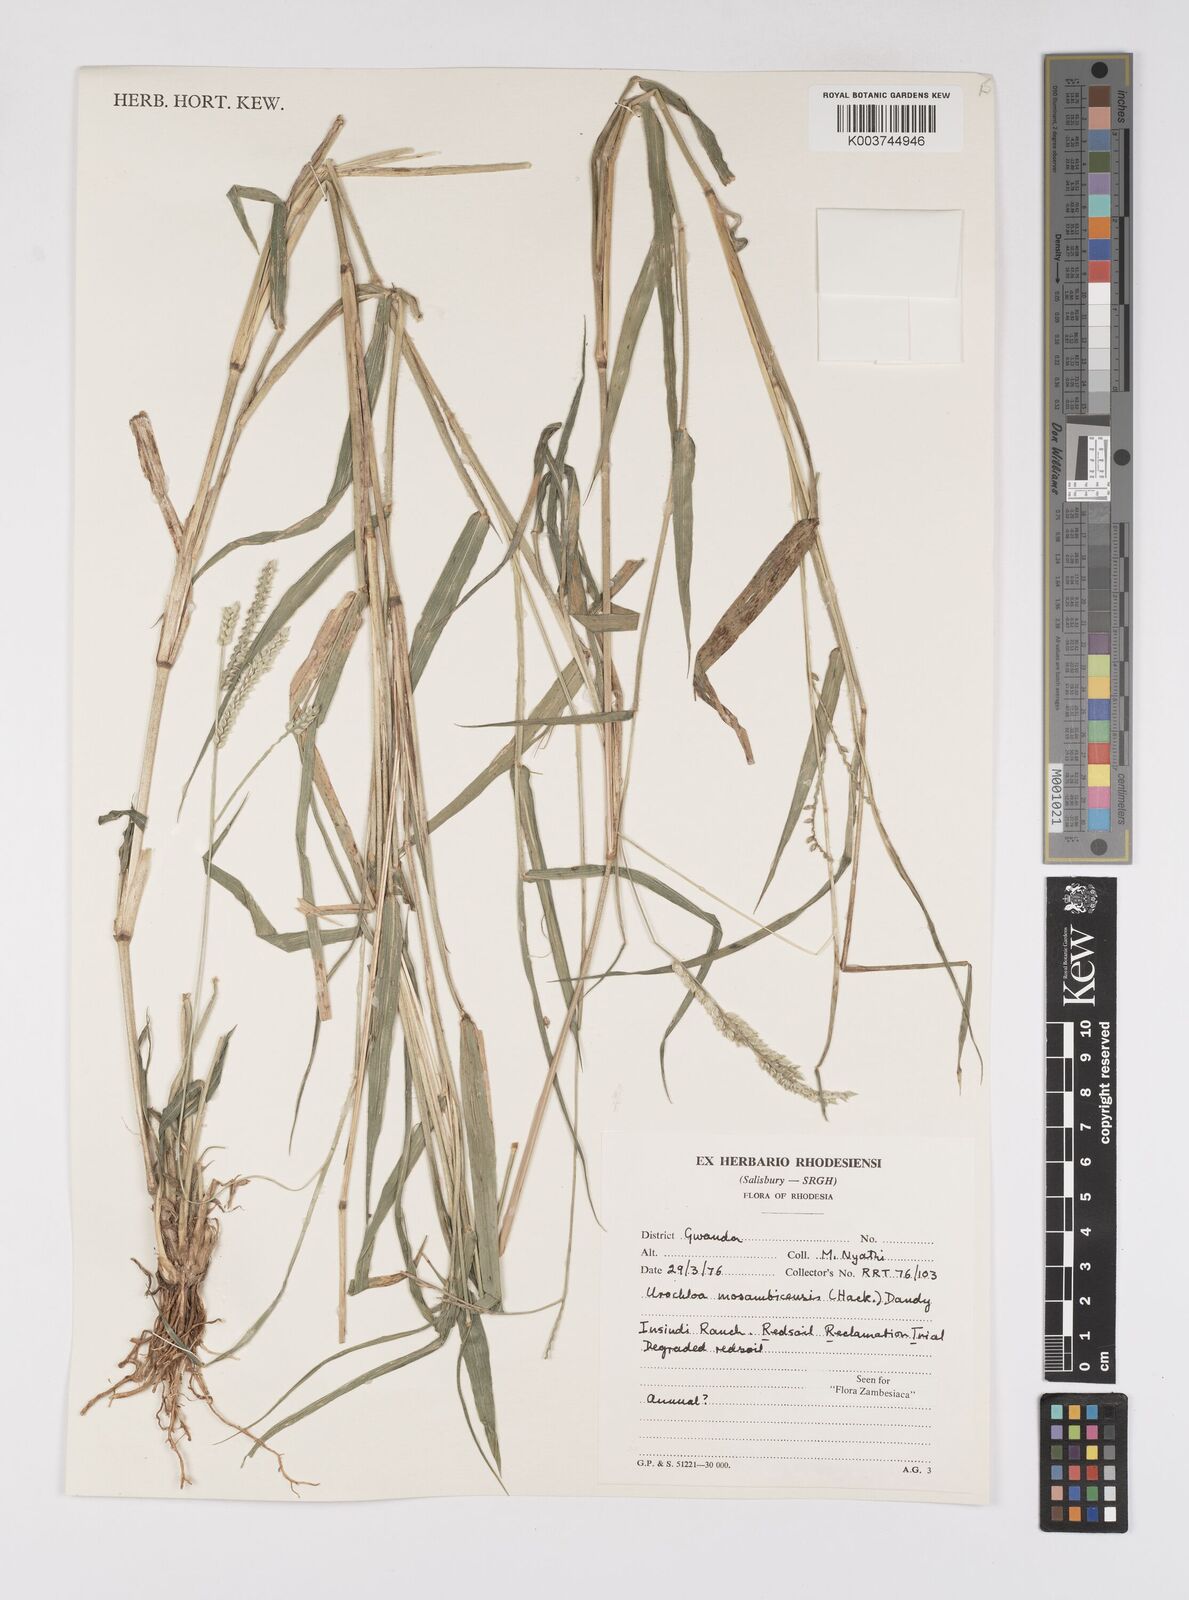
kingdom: Plantae
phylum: Tracheophyta
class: Liliopsida
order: Poales
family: Poaceae
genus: Urochloa
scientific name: Urochloa trichopus
